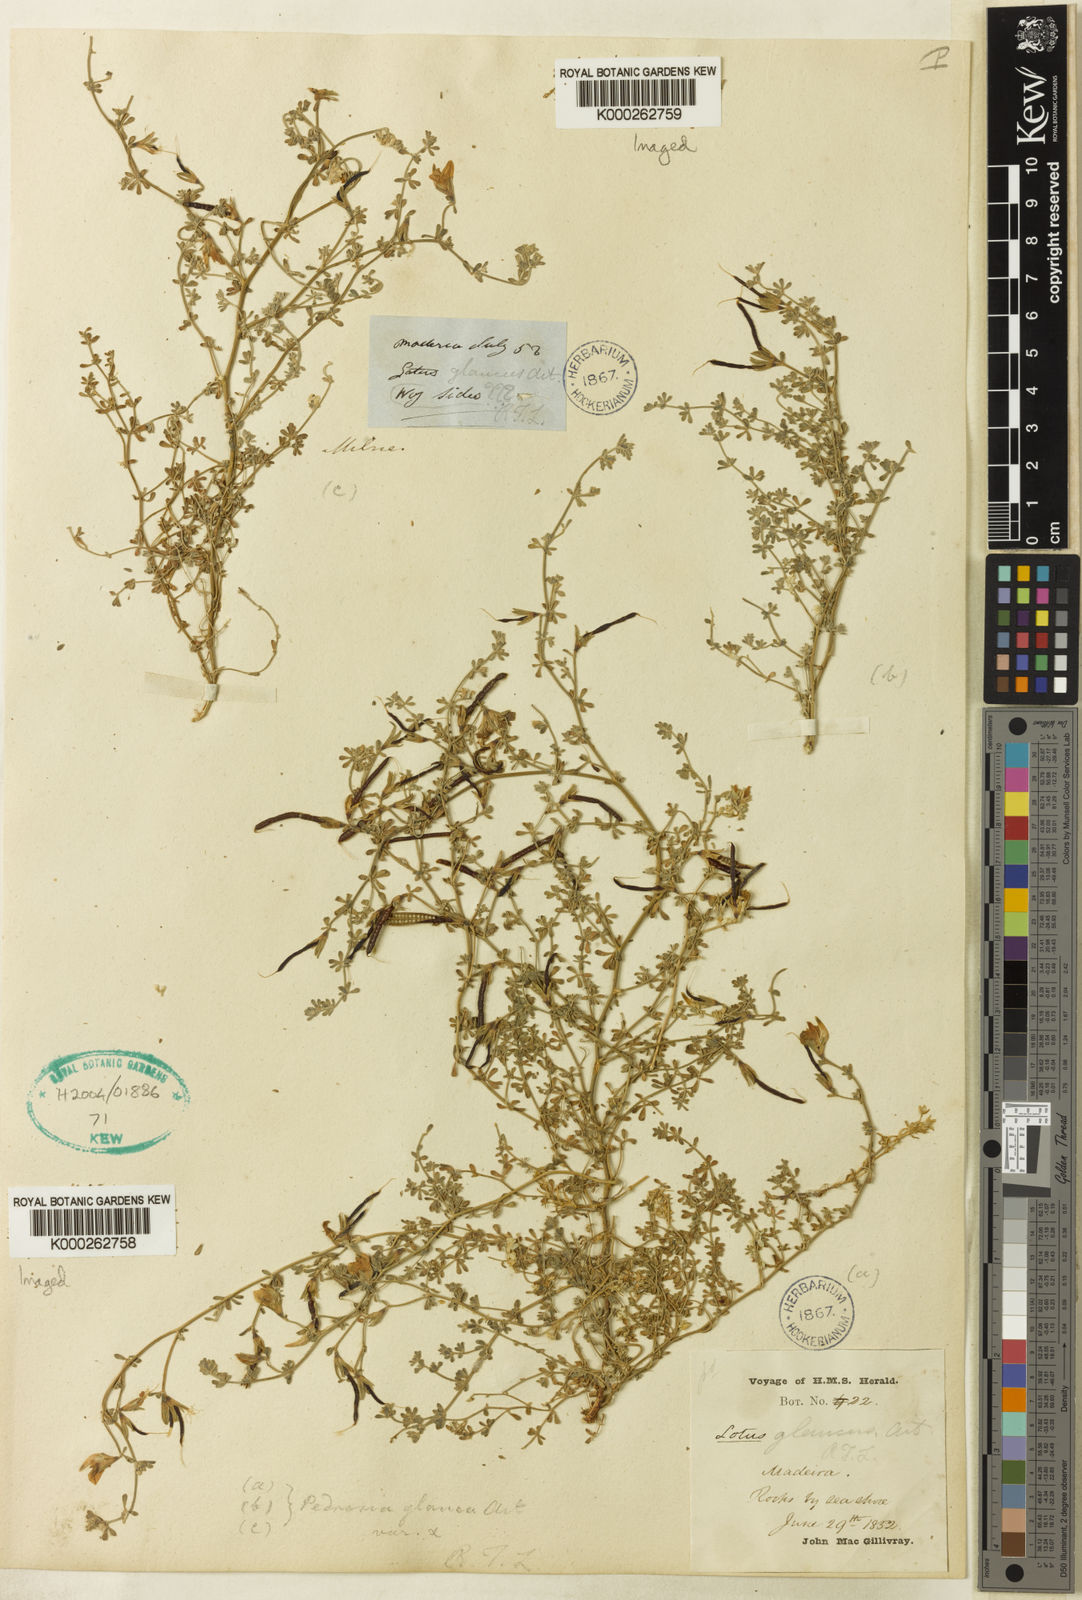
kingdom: Plantae
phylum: Tracheophyta
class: Magnoliopsida
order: Fabales
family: Fabaceae
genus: Lotus
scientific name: Lotus glaucus
